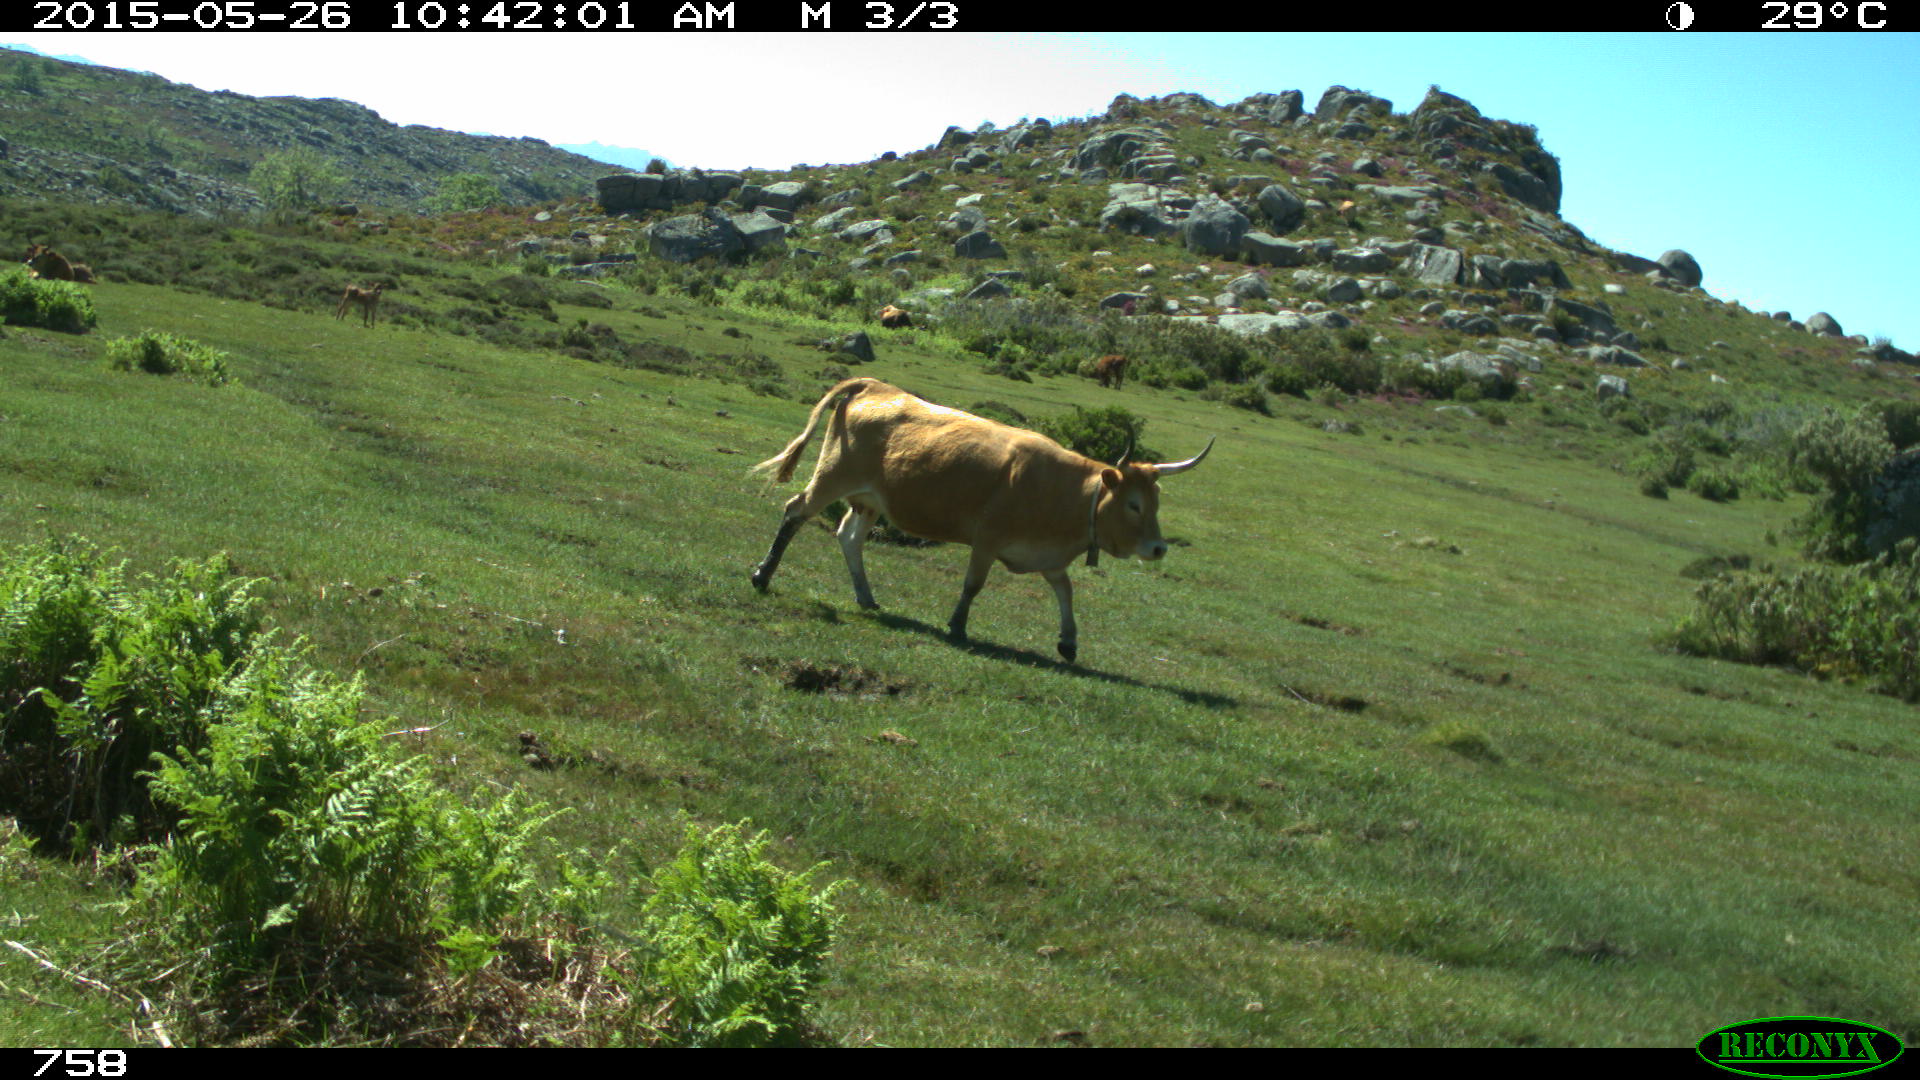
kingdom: Animalia
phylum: Chordata
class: Mammalia
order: Artiodactyla
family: Bovidae
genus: Bos
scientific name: Bos taurus
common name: Domesticated cattle
